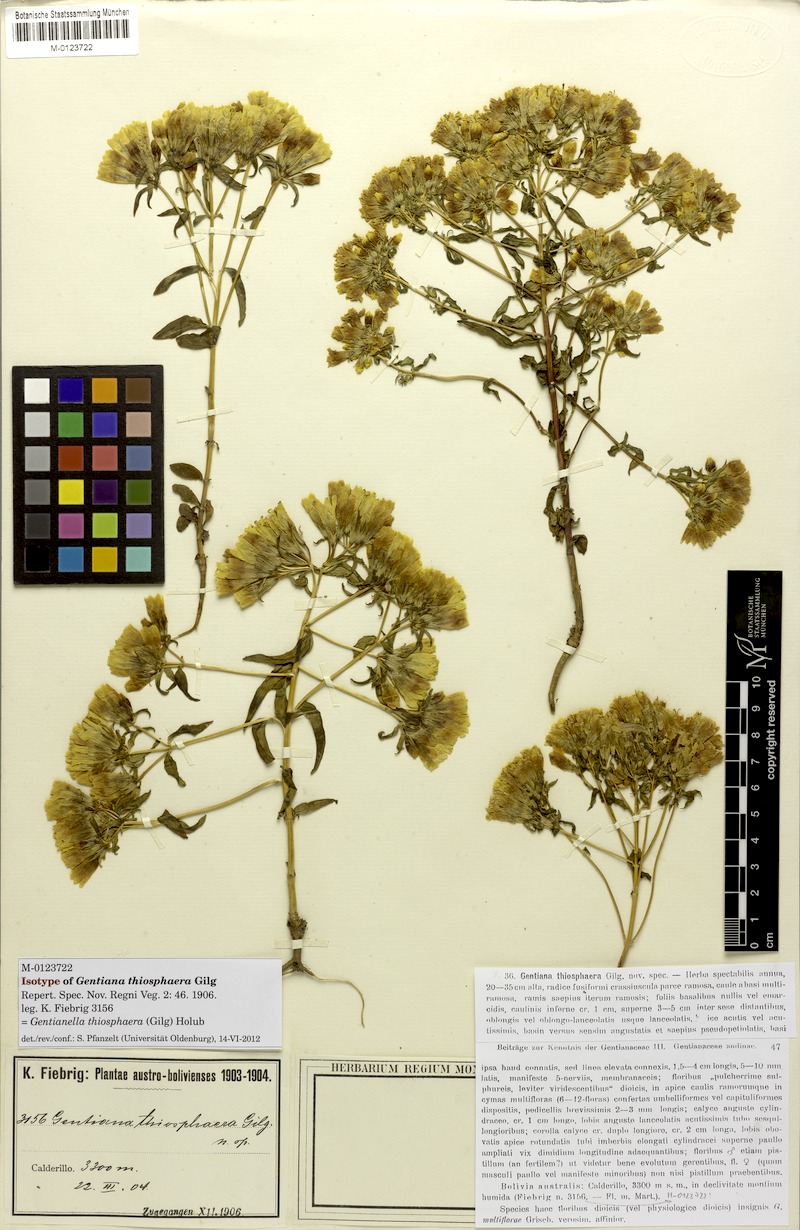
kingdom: Plantae
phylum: Tracheophyta
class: Magnoliopsida
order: Gentianales
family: Gentianaceae
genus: Gentianella
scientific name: Gentianella thiosphaera
